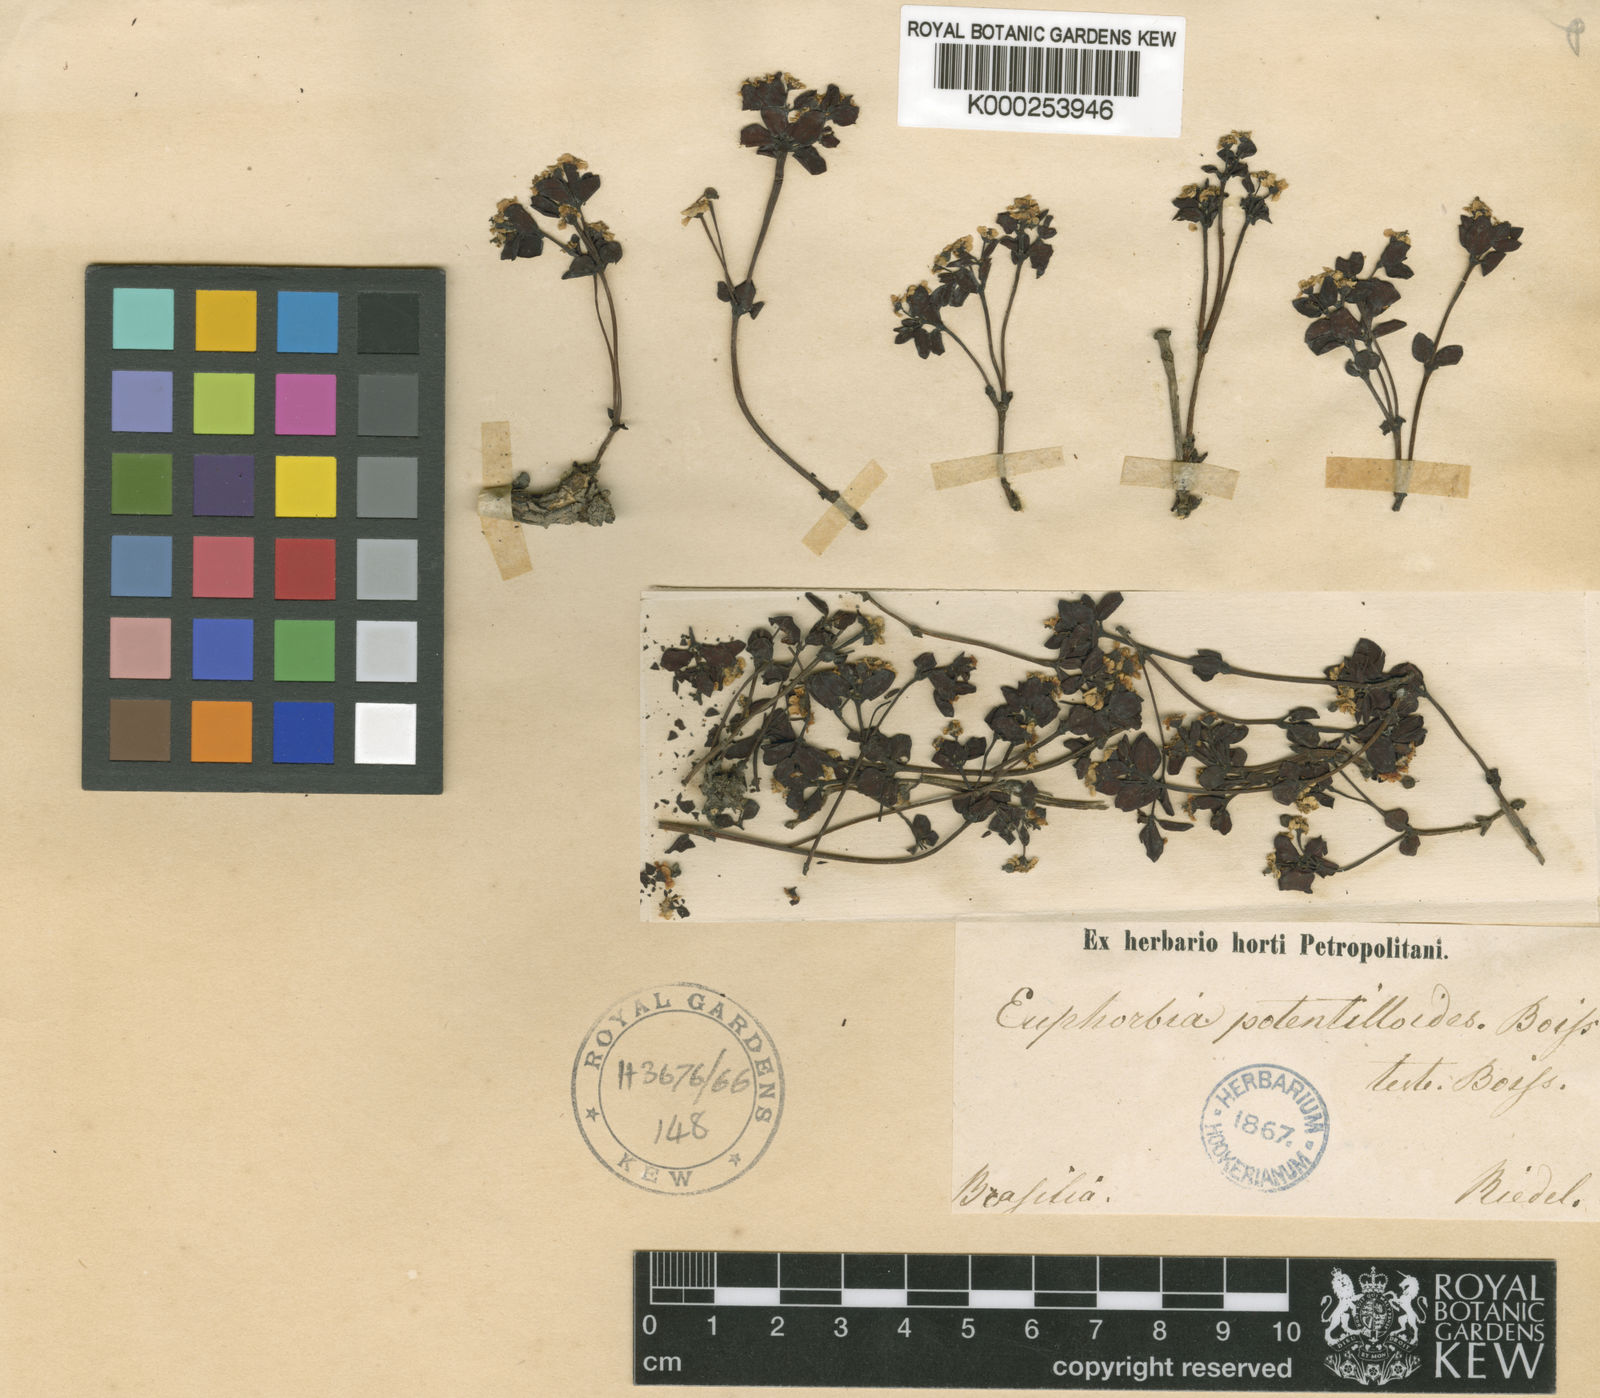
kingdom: Plantae
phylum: Tracheophyta
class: Magnoliopsida
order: Malpighiales
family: Euphorbiaceae
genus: Euphorbia
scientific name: Euphorbia potentilloides
